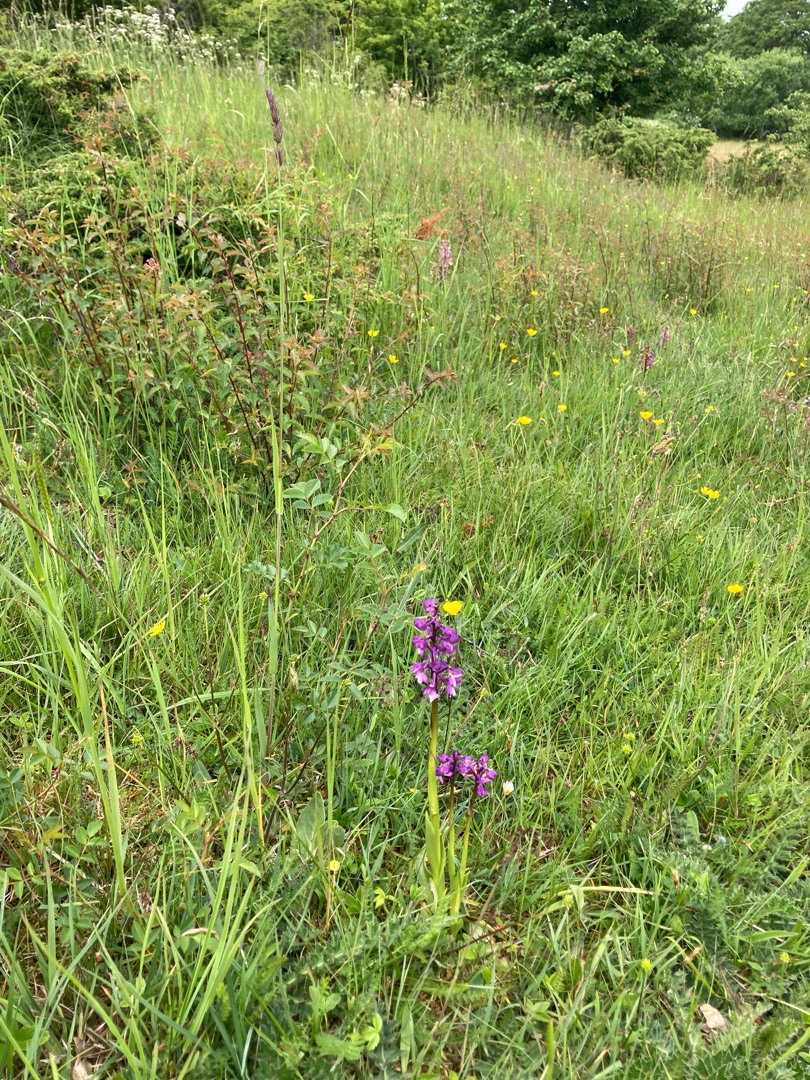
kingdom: Plantae
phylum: Tracheophyta
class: Liliopsida
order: Asparagales
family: Orchidaceae
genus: Anacamptis
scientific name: Anacamptis morio
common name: Salepgøgeurt
